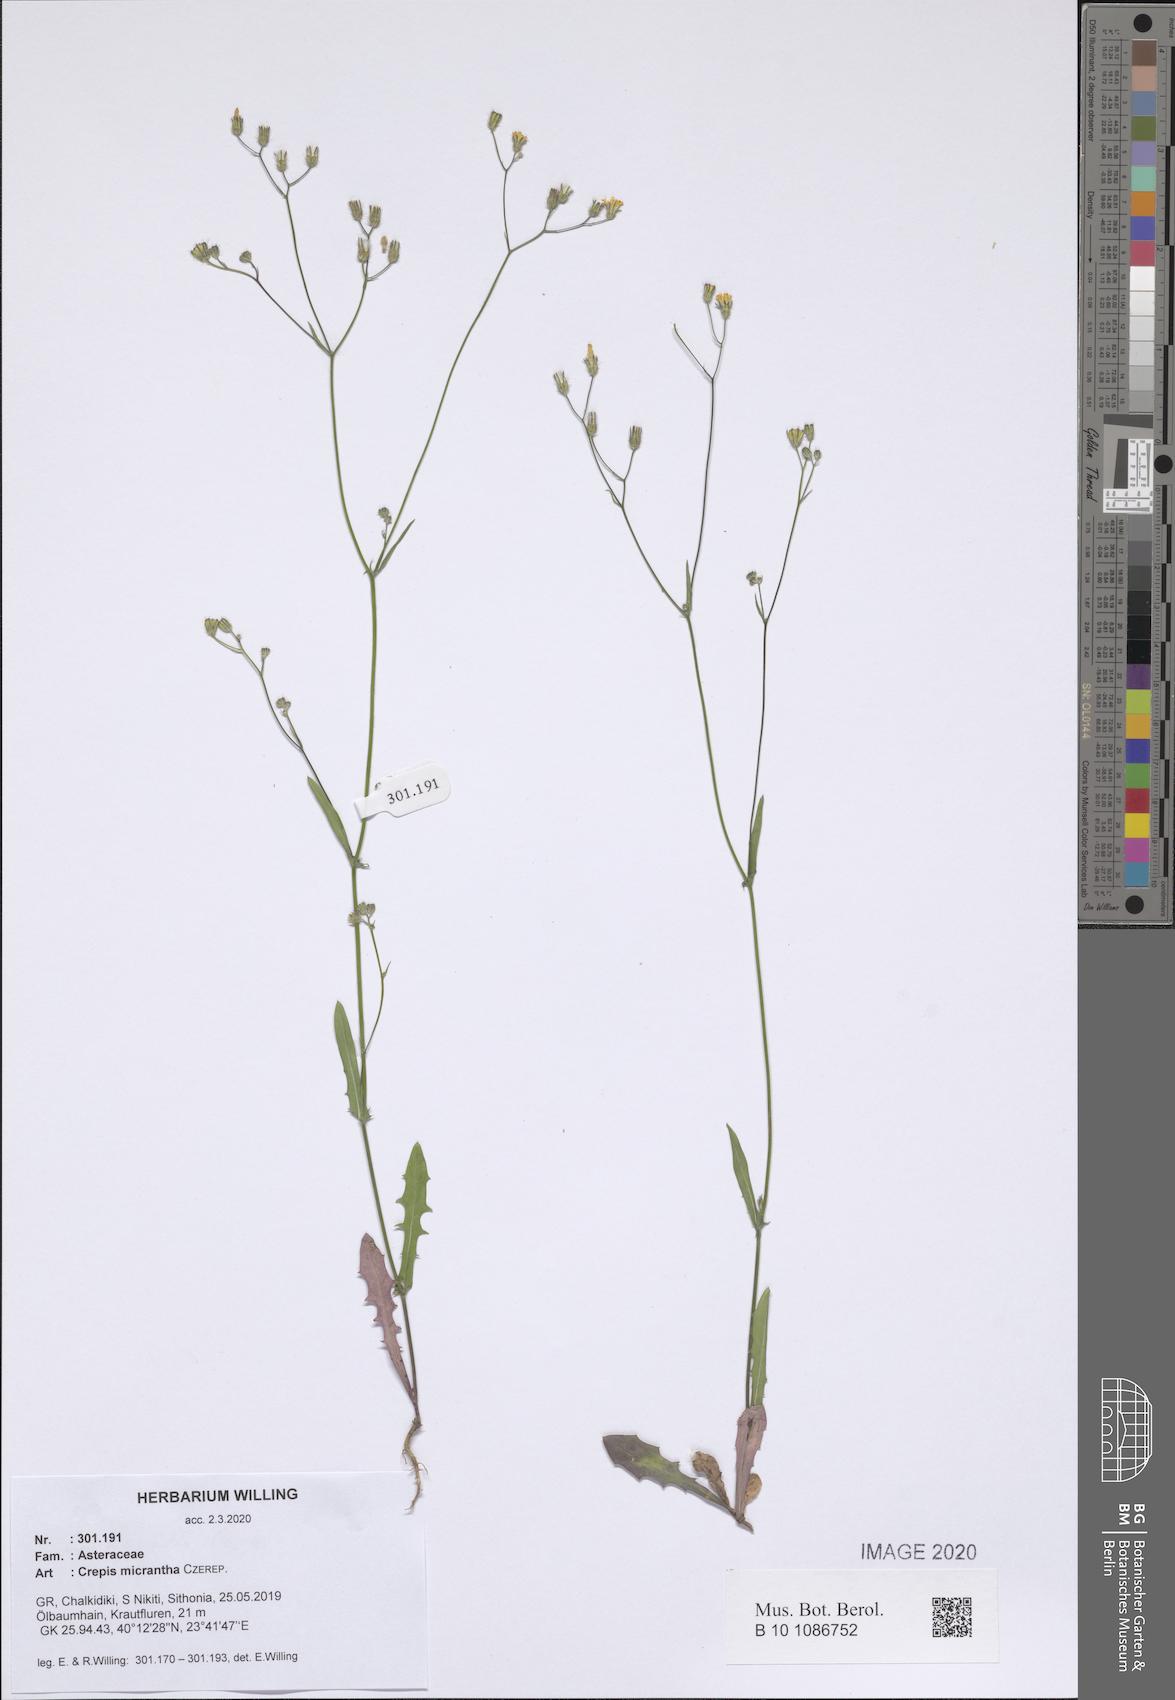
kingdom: Plantae
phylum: Tracheophyta
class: Magnoliopsida
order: Asterales
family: Asteraceae
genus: Crepis
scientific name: Crepis micrantha
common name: Hawk's-beard
